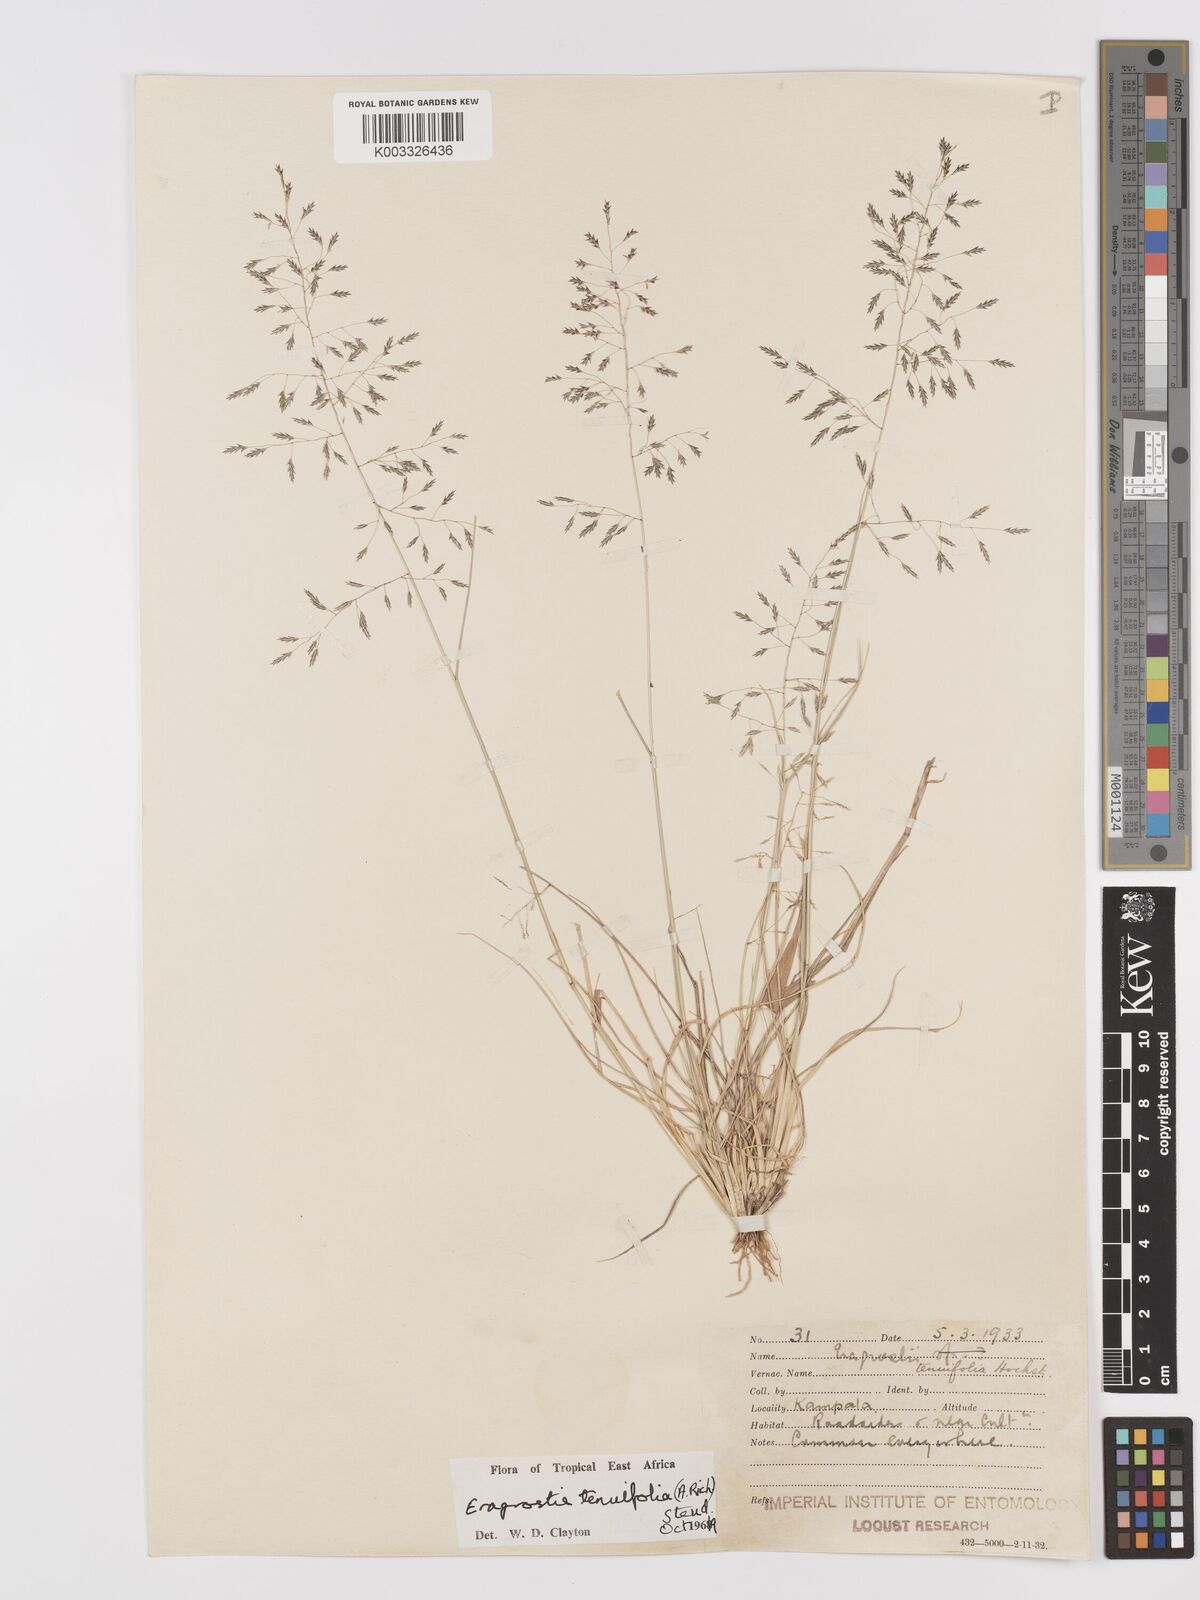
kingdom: Plantae
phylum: Tracheophyta
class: Liliopsida
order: Poales
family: Poaceae
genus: Eragrostis
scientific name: Eragrostis tenuifolia
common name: Elastic grass
